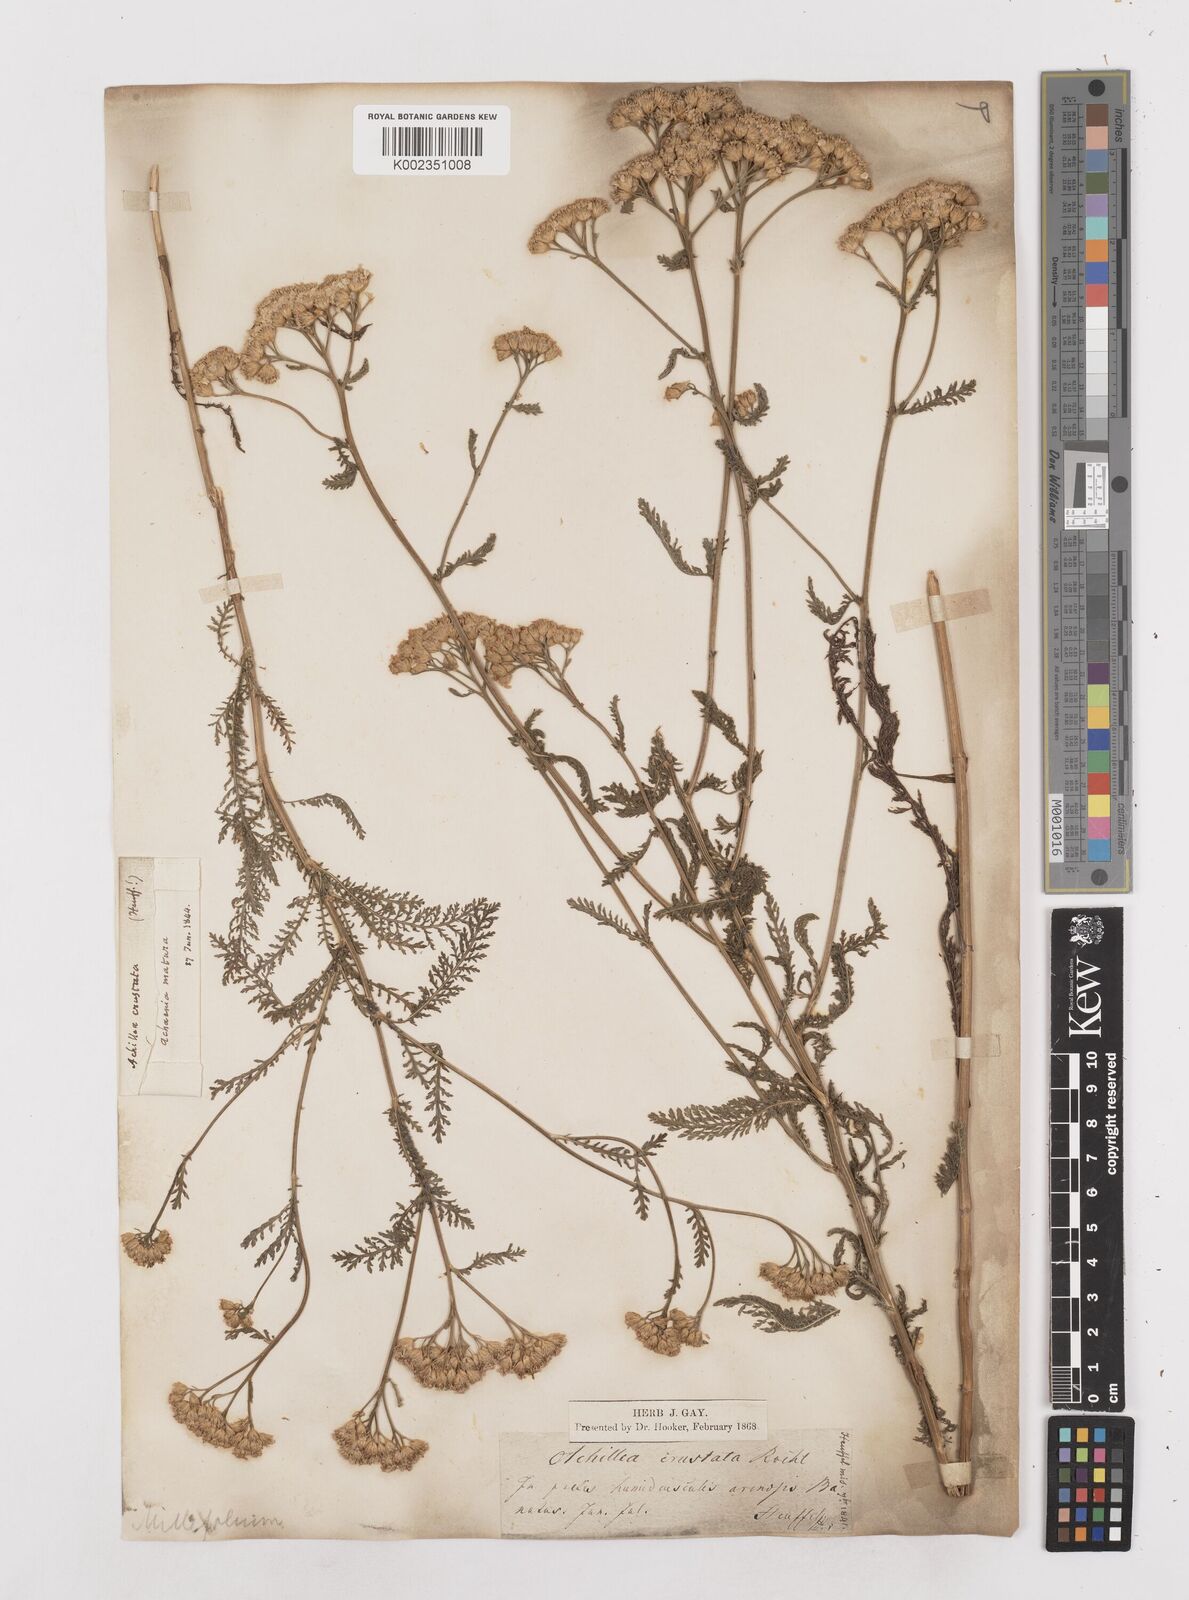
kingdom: Plantae
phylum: Tracheophyta
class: Magnoliopsida
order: Asterales
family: Asteraceae
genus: Achillea
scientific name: Achillea millefolium
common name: Yarrow
